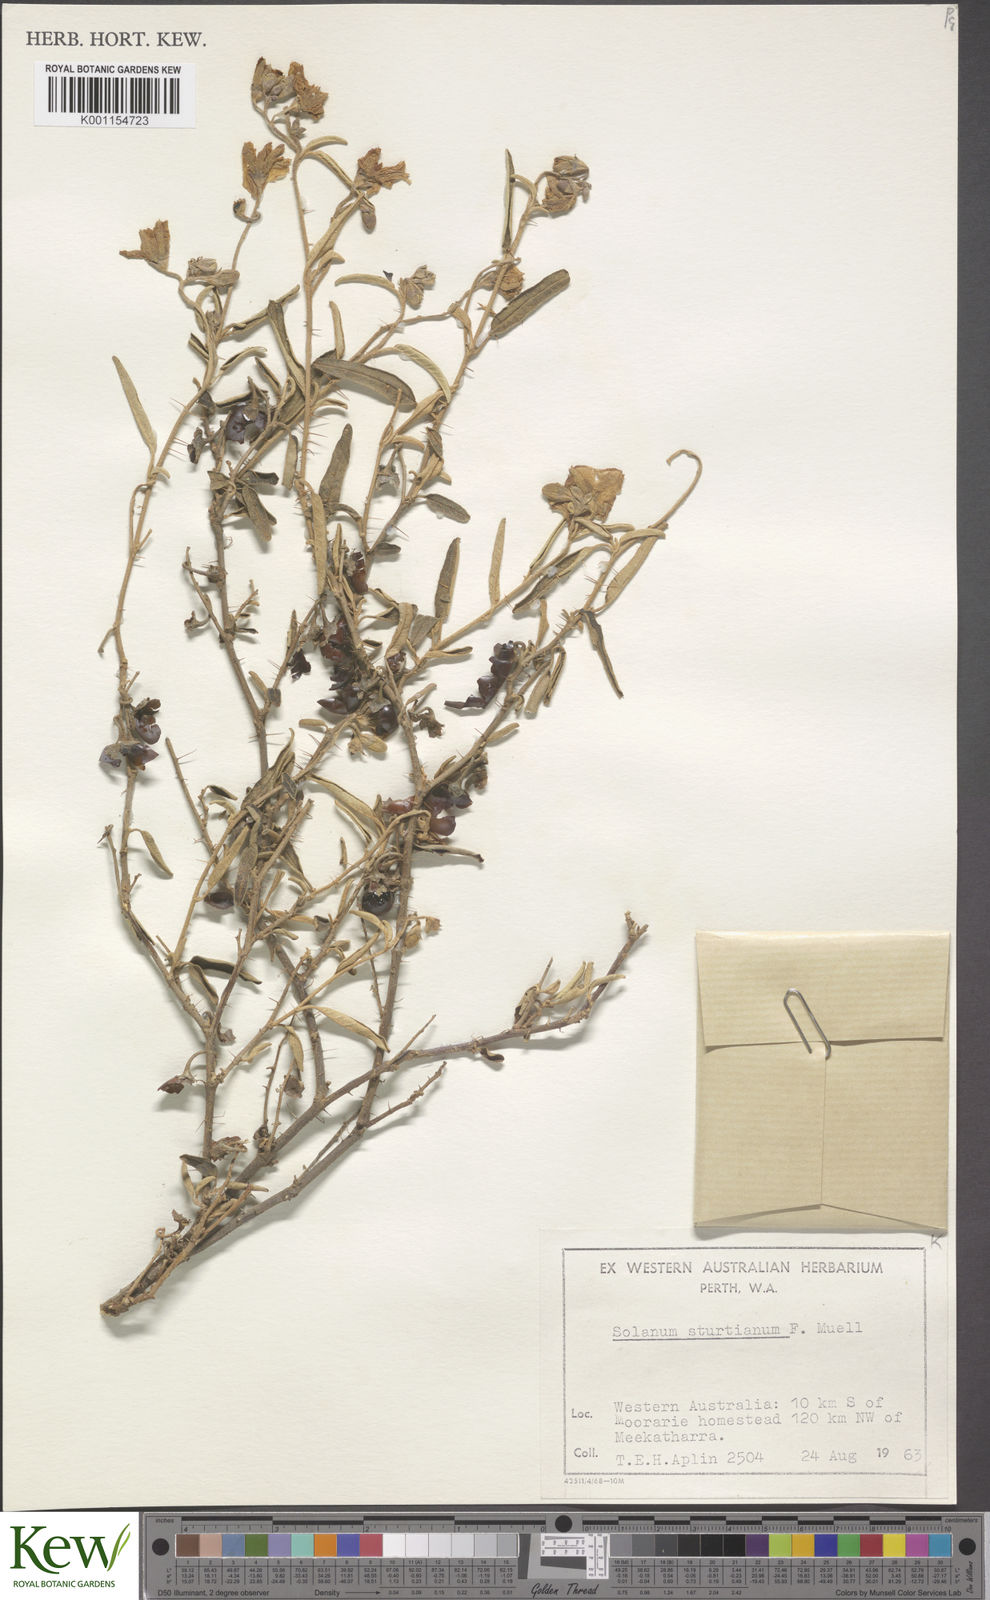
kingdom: Plantae
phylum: Tracheophyta
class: Magnoliopsida
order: Solanales
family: Solanaceae
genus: Solanum
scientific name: Solanum sturtianum
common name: Thargomindah nightshade
